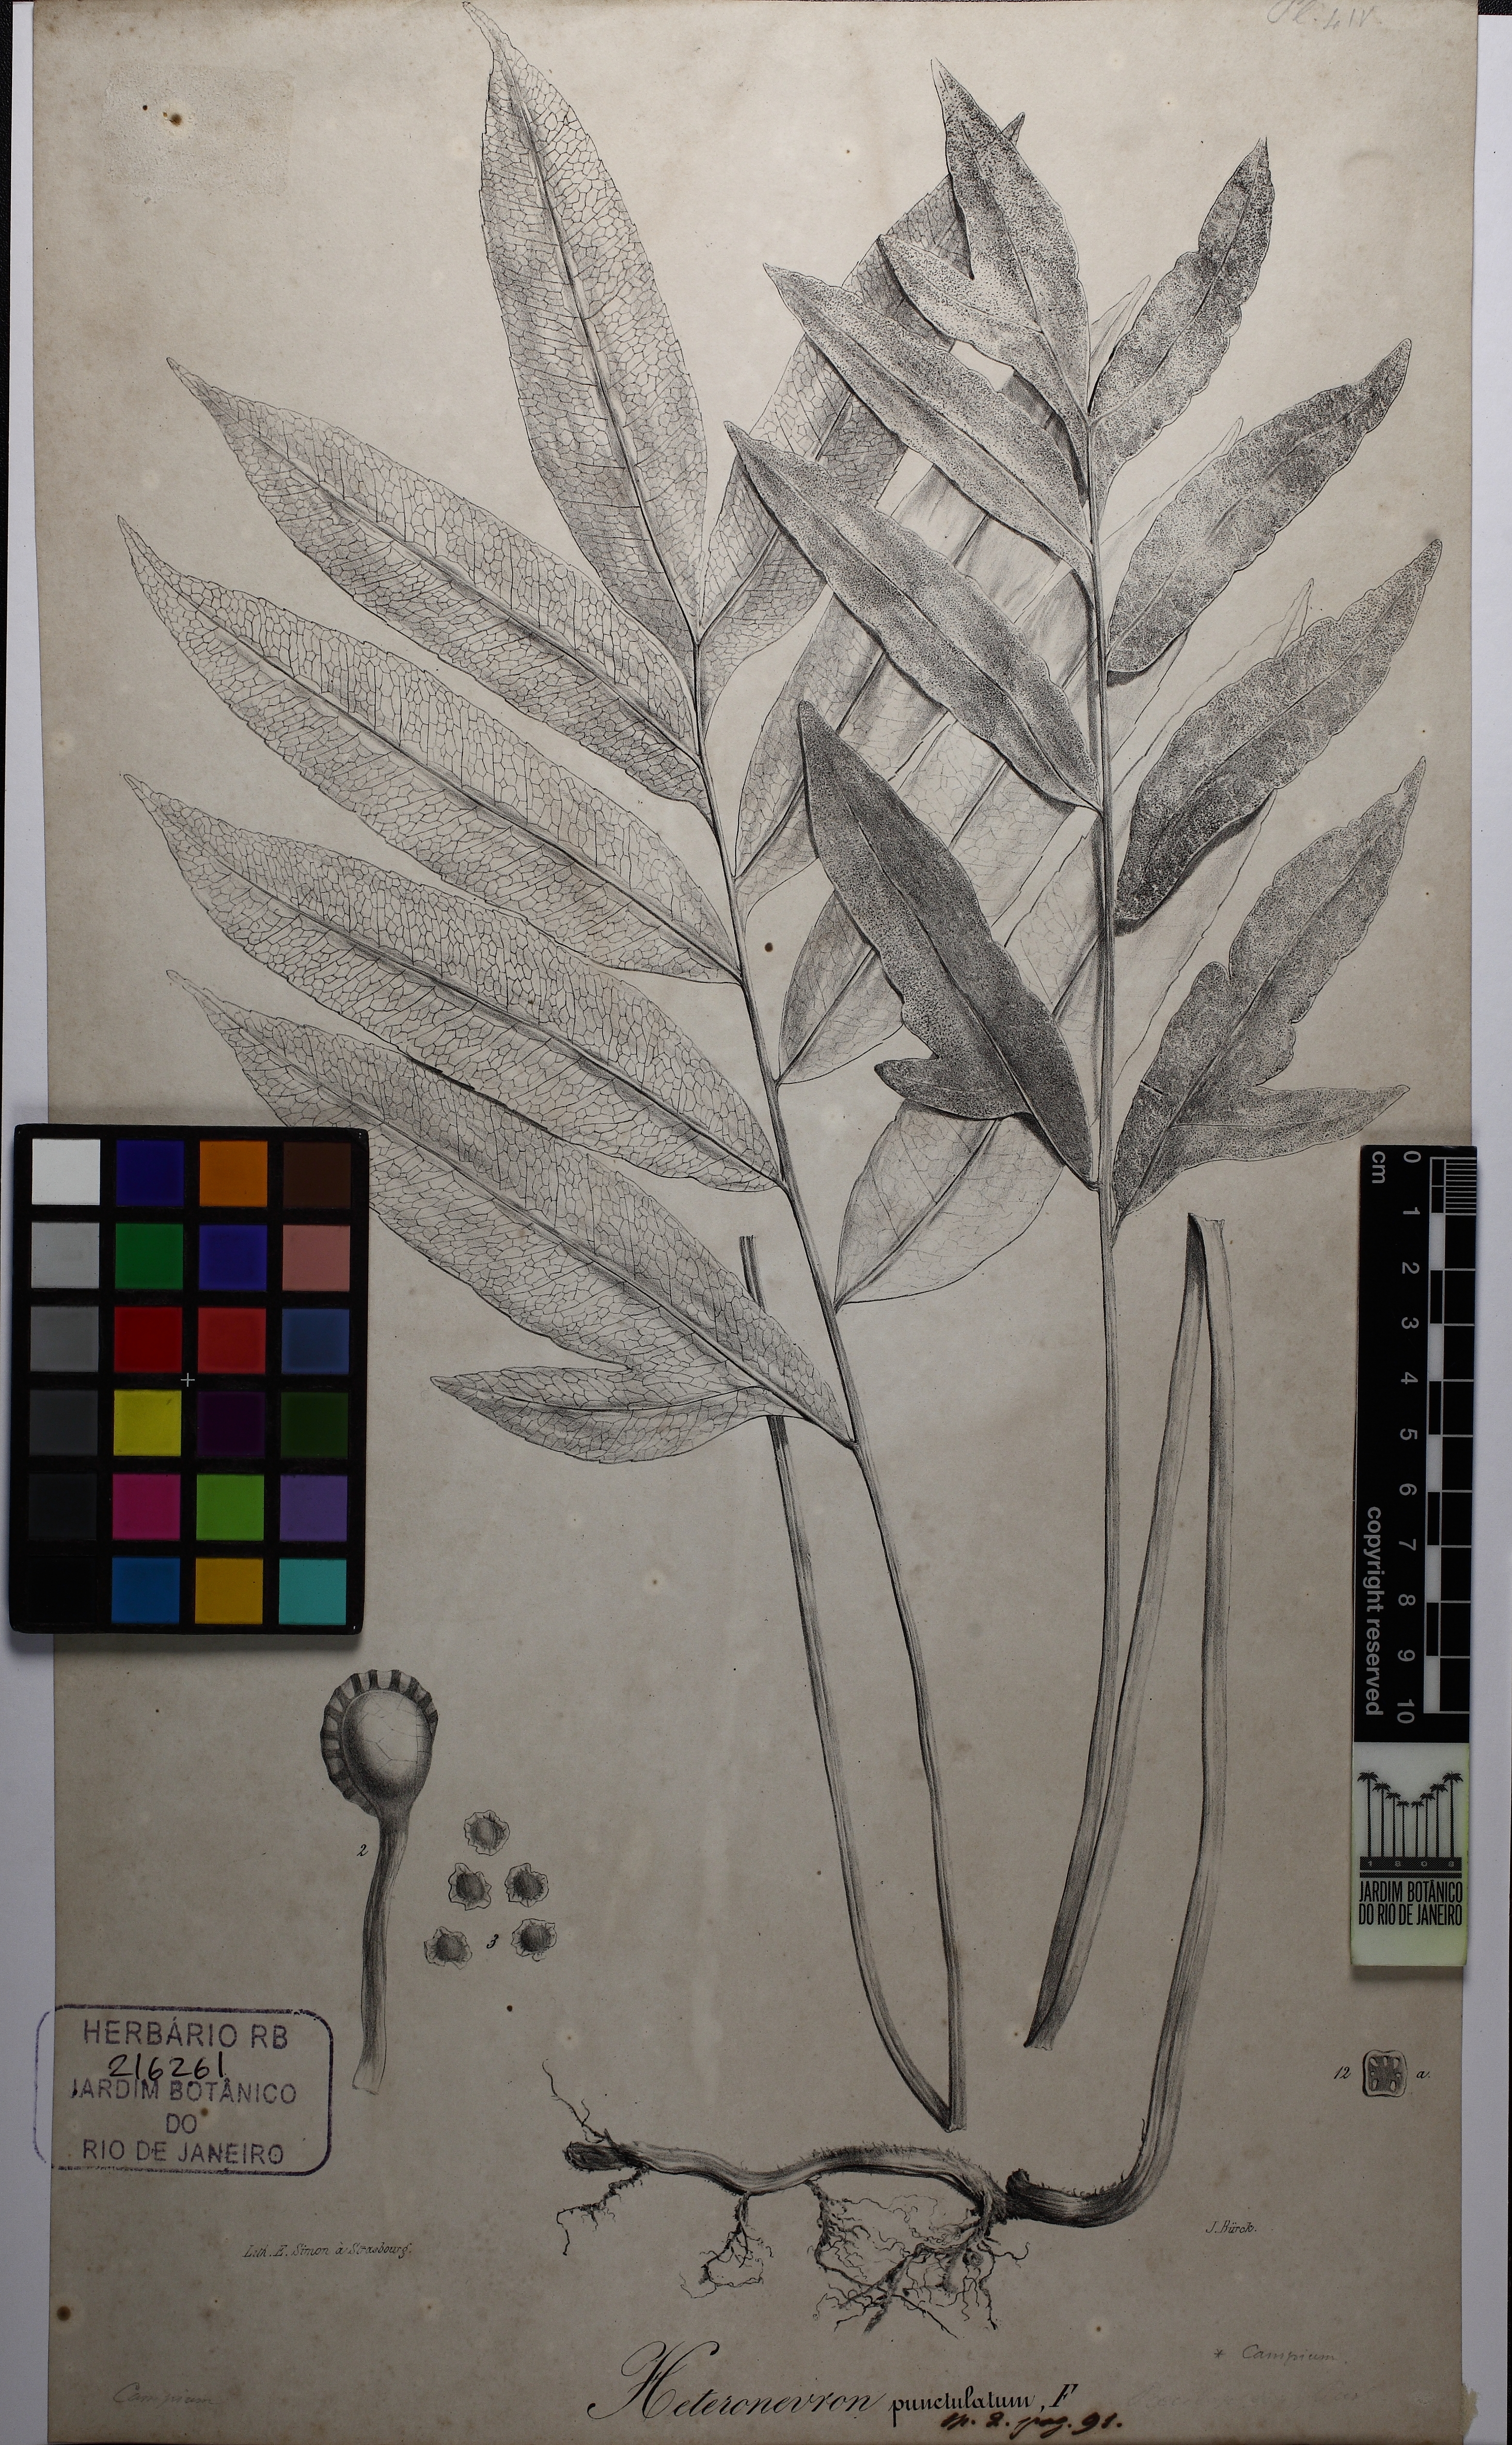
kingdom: Plantae
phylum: Tracheophyta
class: Polypodiopsida
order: Polypodiales
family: Lomariopsidaceae
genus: Heteronevron
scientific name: Heteronevron punctulatum
